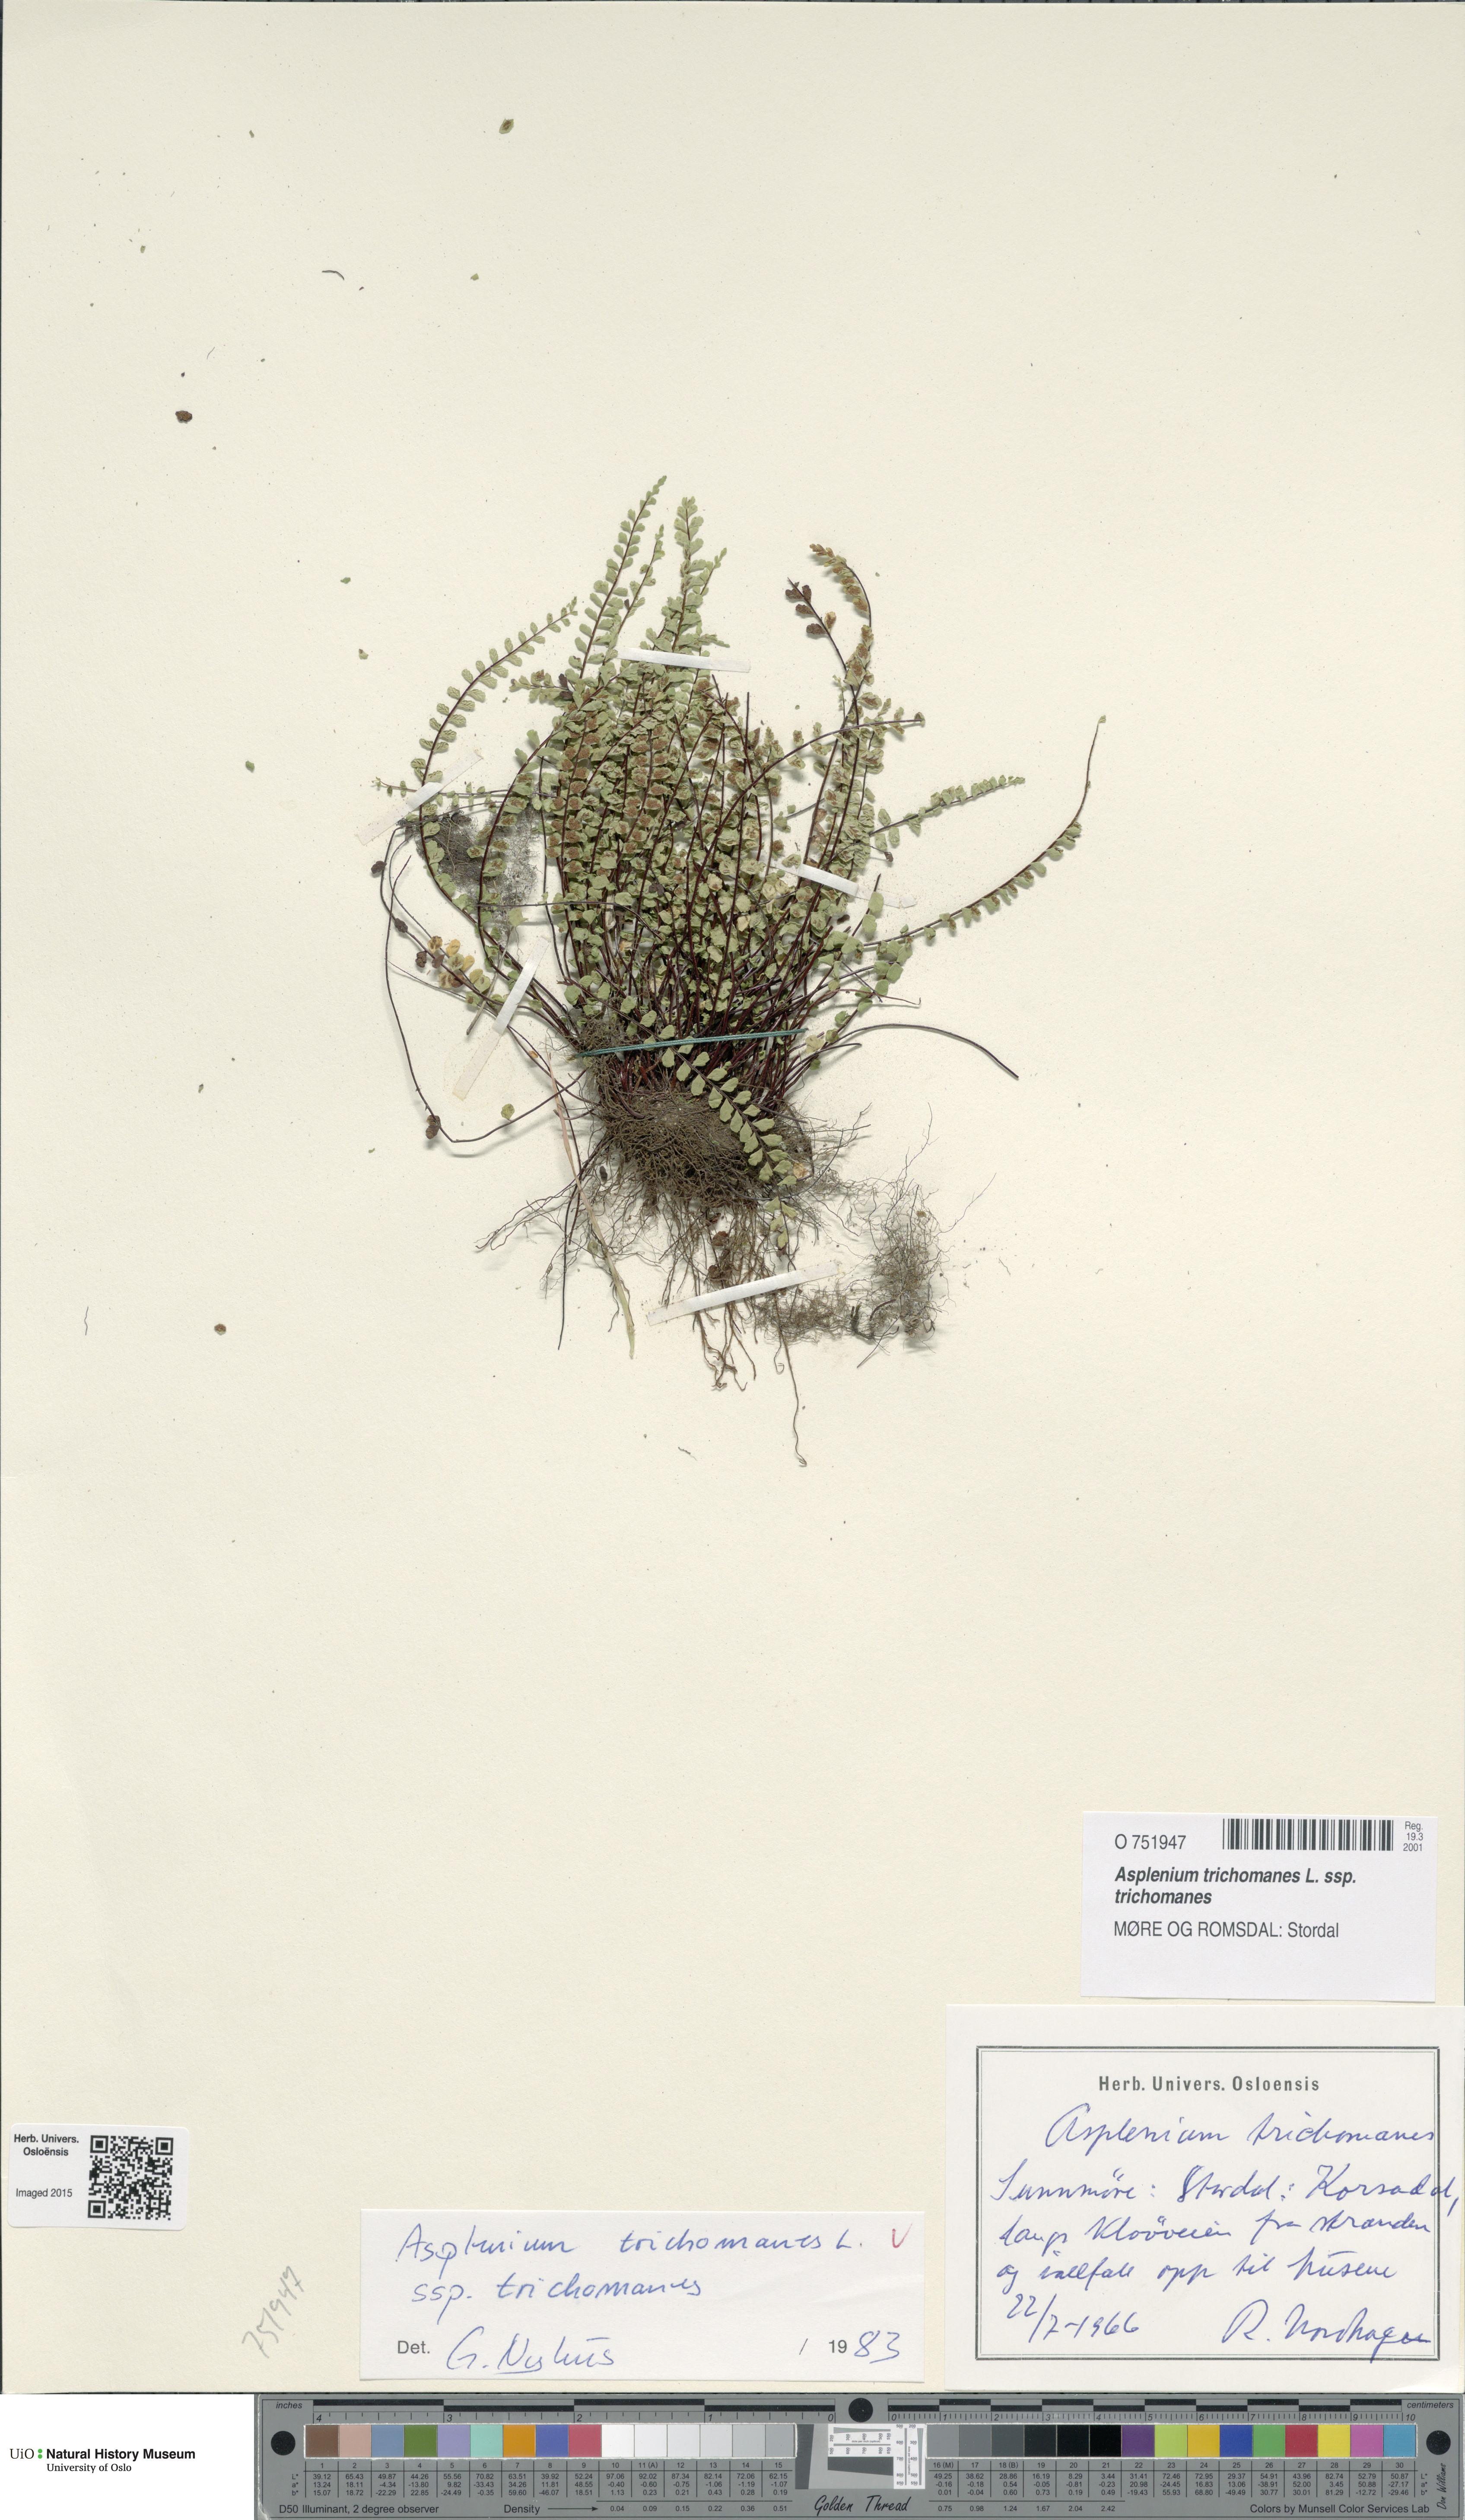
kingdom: Plantae
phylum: Tracheophyta
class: Polypodiopsida
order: Polypodiales
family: Aspleniaceae
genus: Asplenium
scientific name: Asplenium trichomanes
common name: Maidenhair spleenwort
